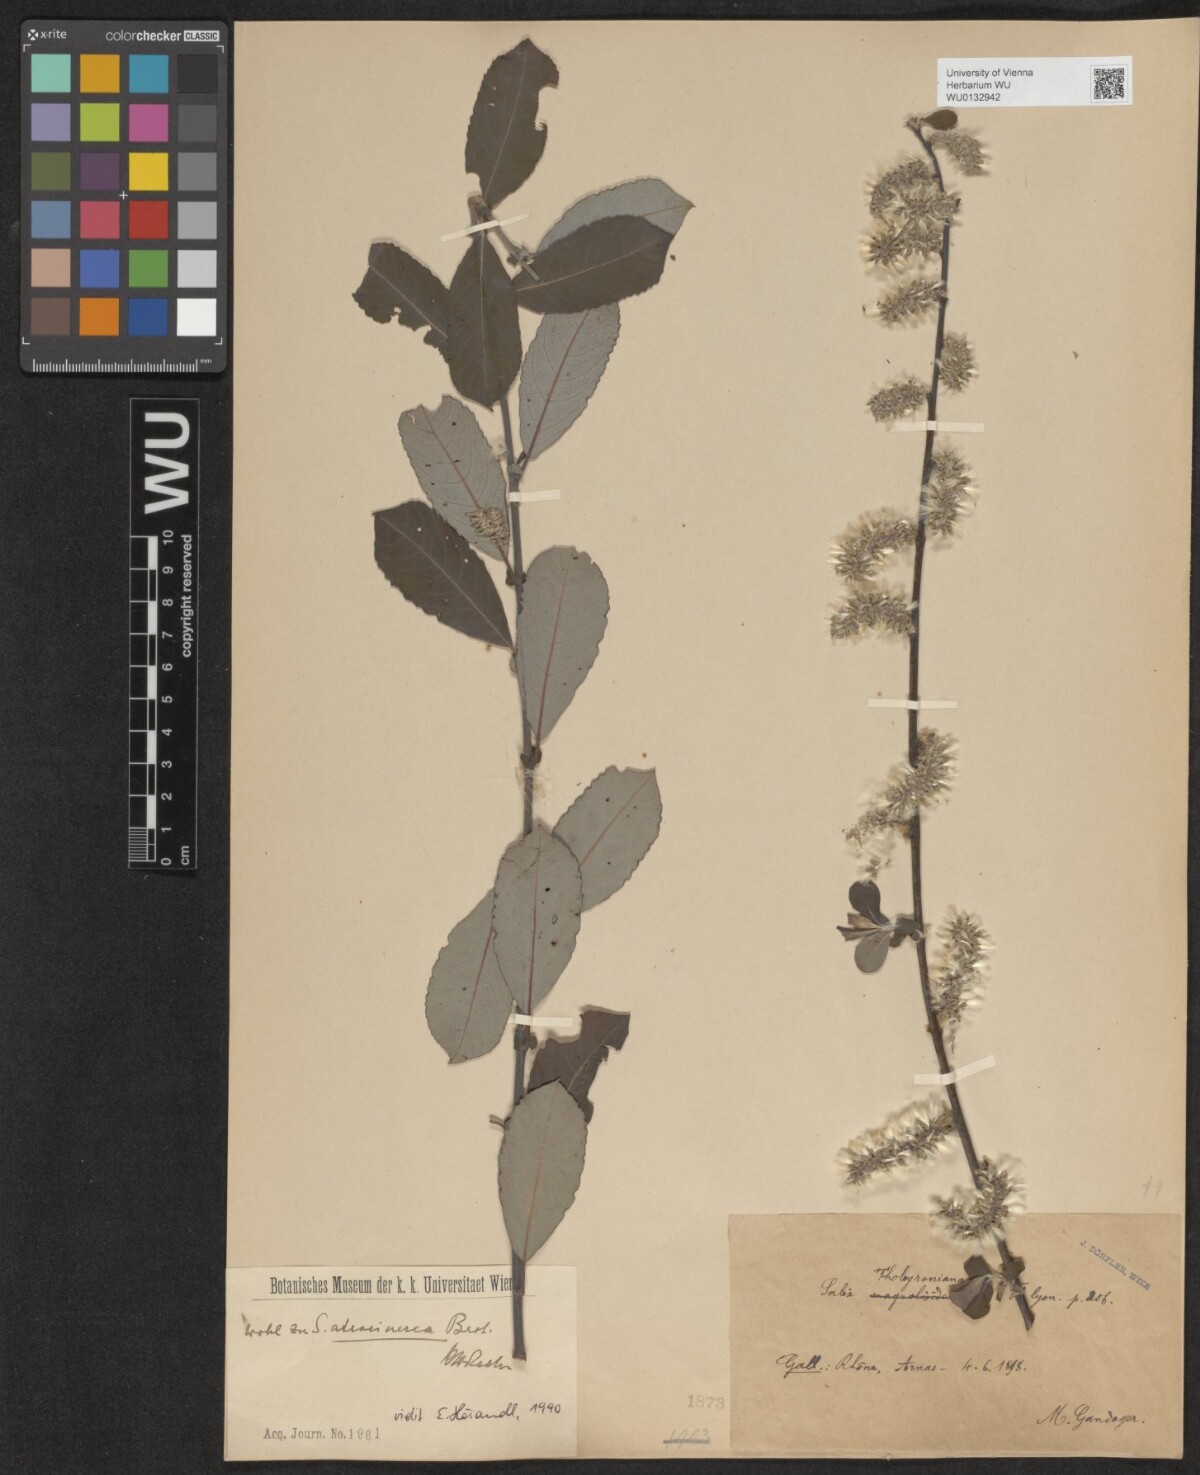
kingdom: Plantae
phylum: Tracheophyta
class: Magnoliopsida
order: Malpighiales
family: Salicaceae
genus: Salix
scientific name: Salix atrocinerea
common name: Rusty willow
